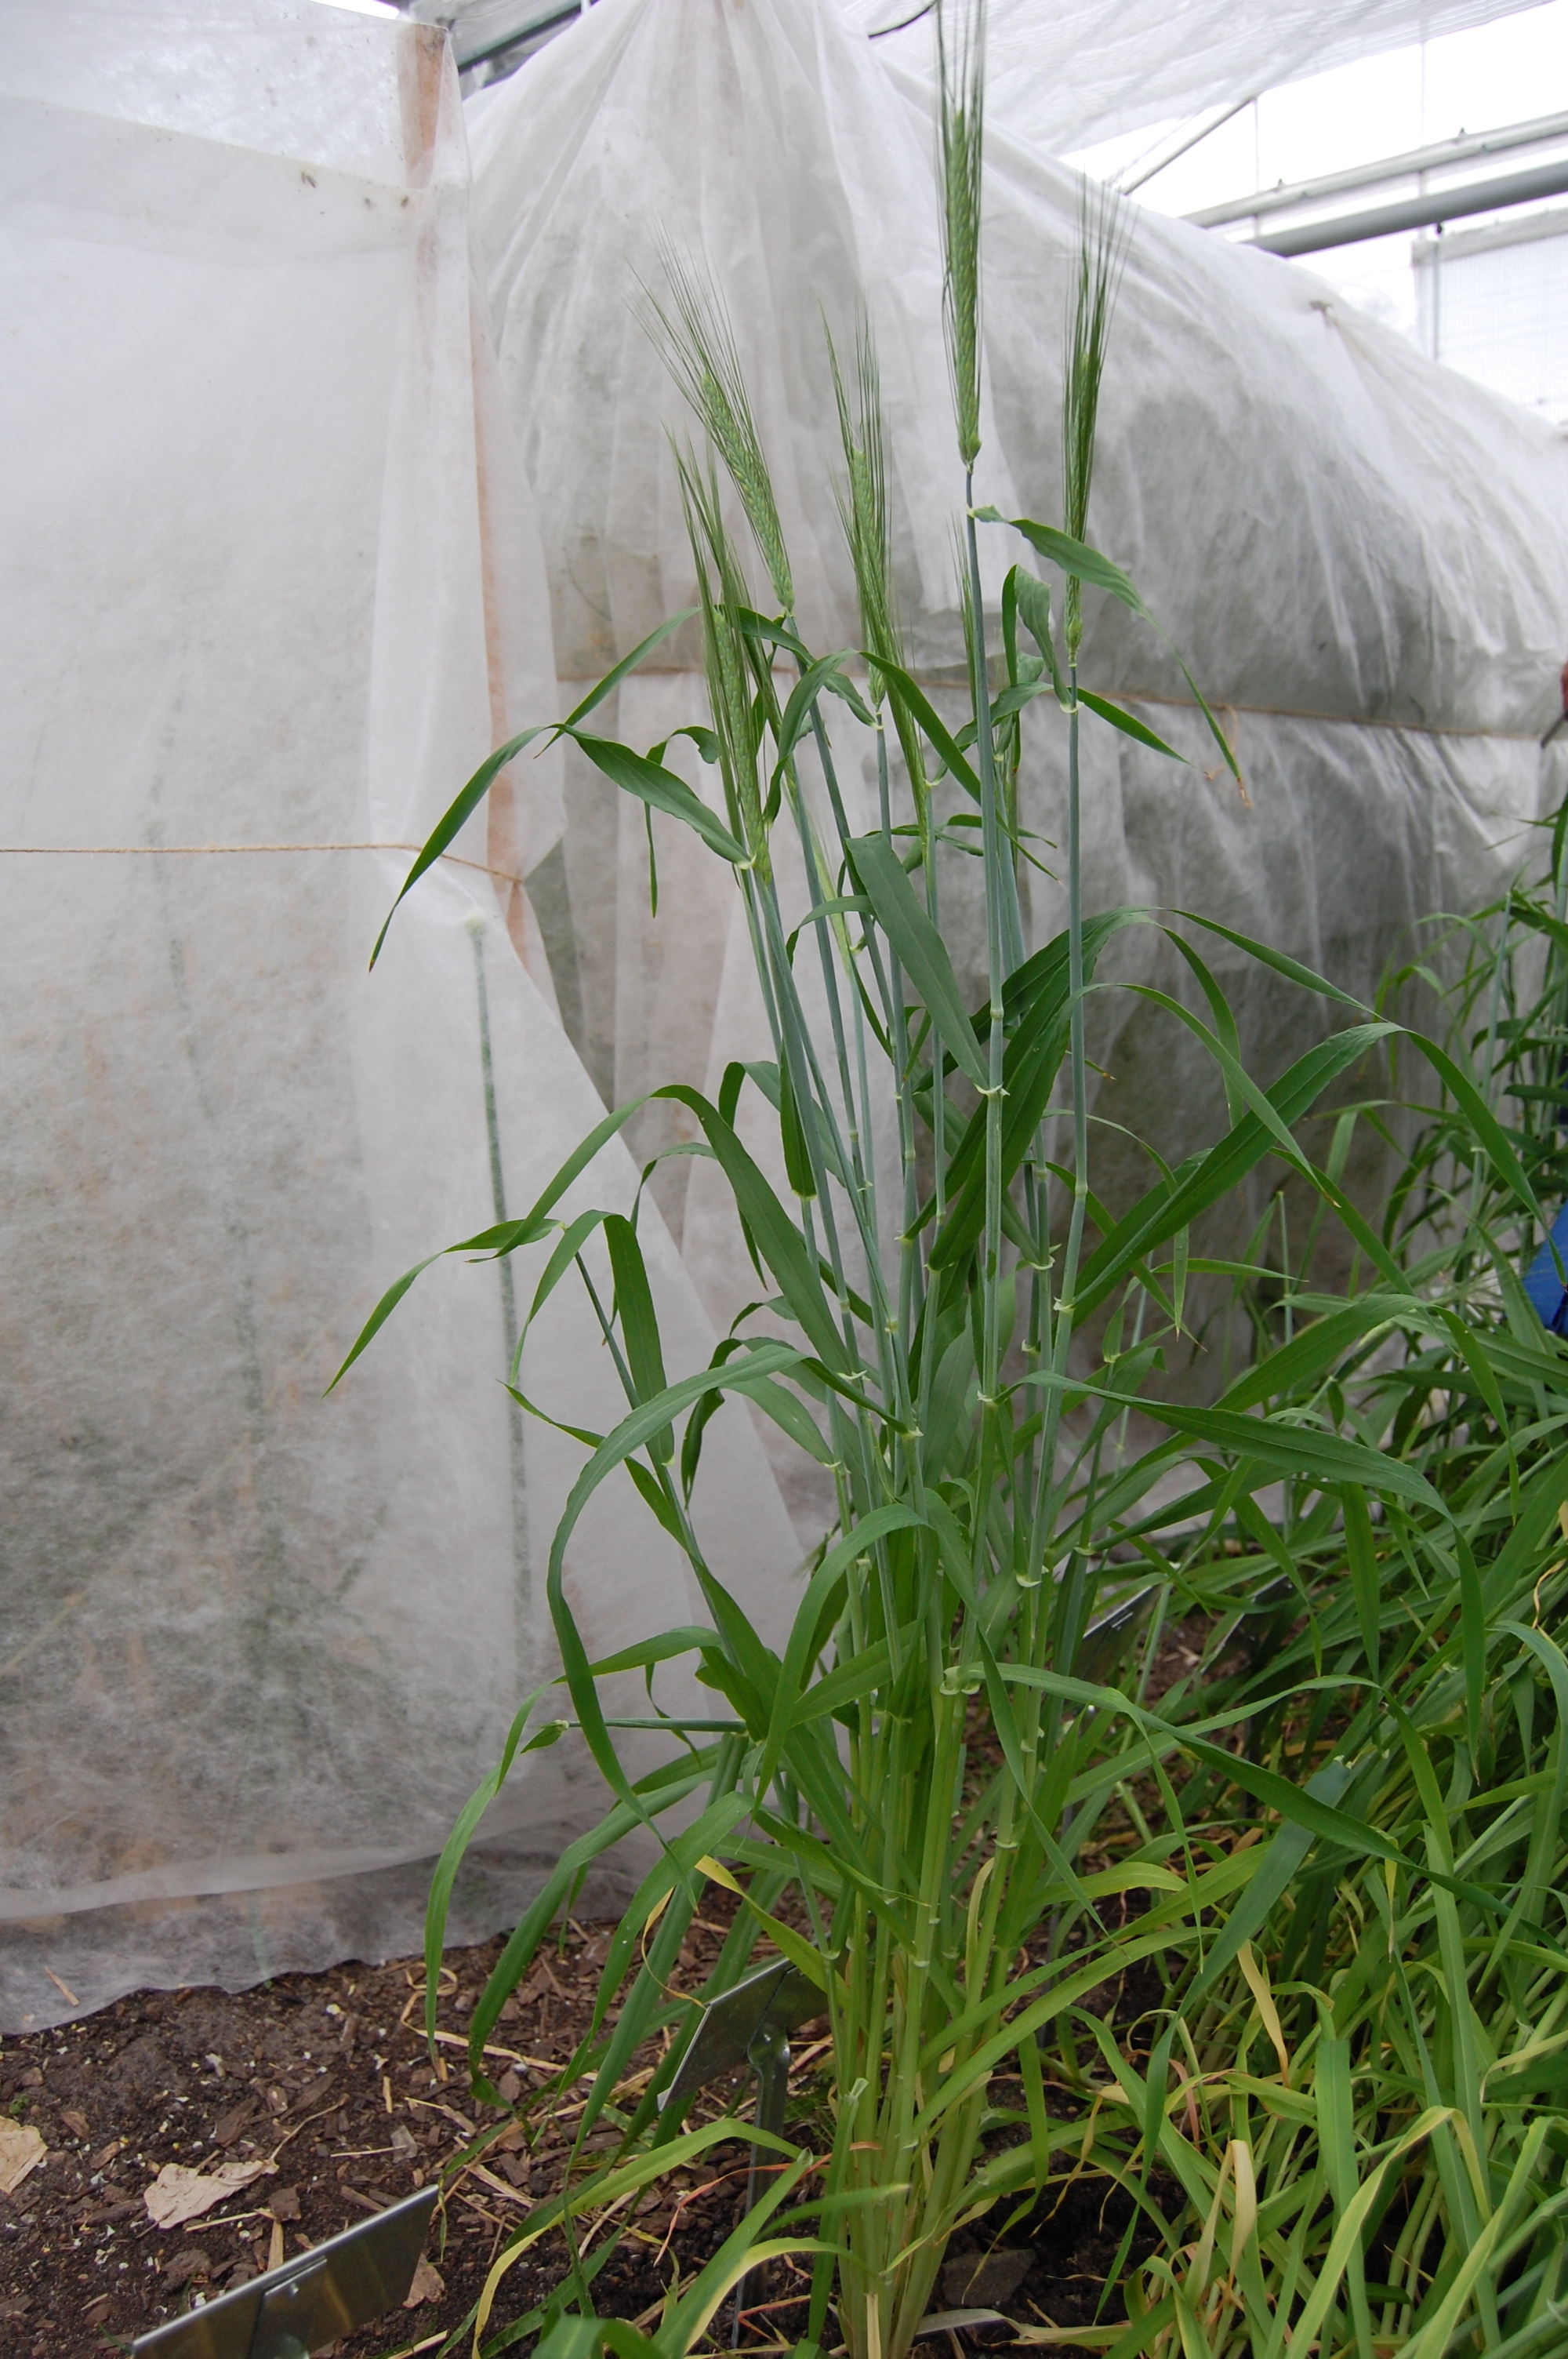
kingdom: Plantae
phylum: Tracheophyta
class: Liliopsida
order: Poales
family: Poaceae
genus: Hordeum
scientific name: Hordeum vulgare
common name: Common barley
